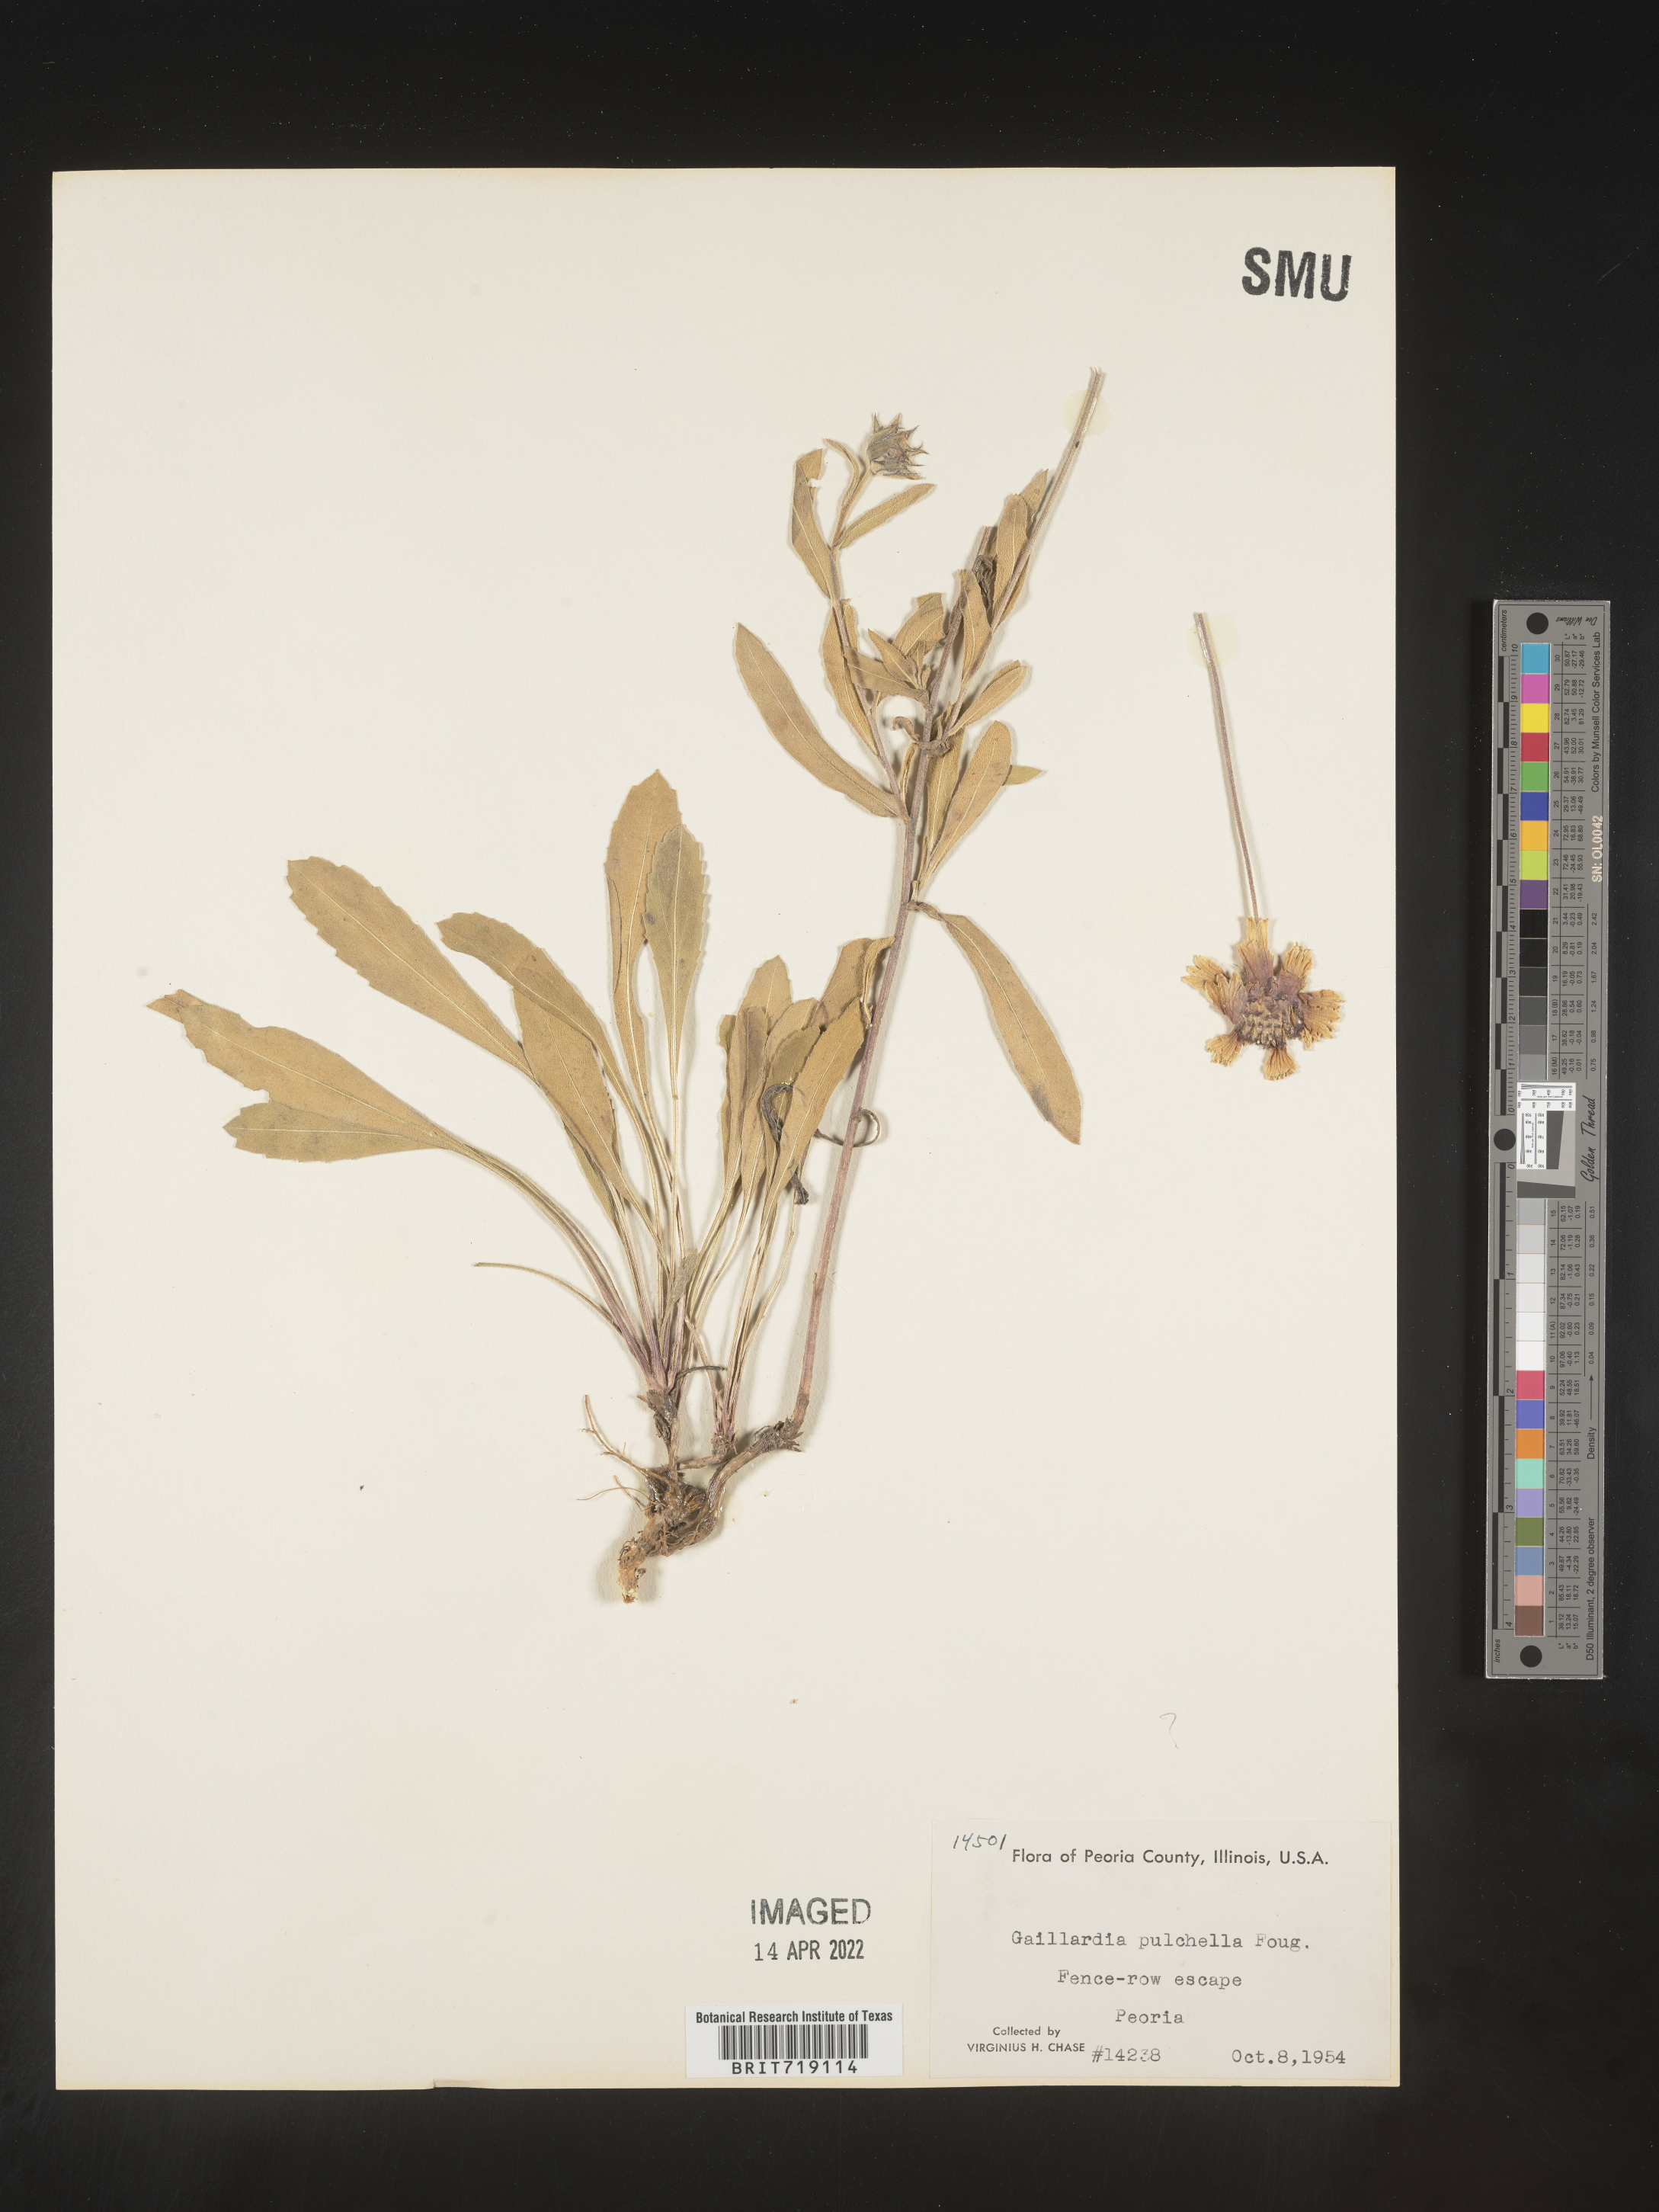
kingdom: Plantae
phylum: Tracheophyta
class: Magnoliopsida
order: Asterales
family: Asteraceae
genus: Gaillardia
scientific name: Gaillardia
